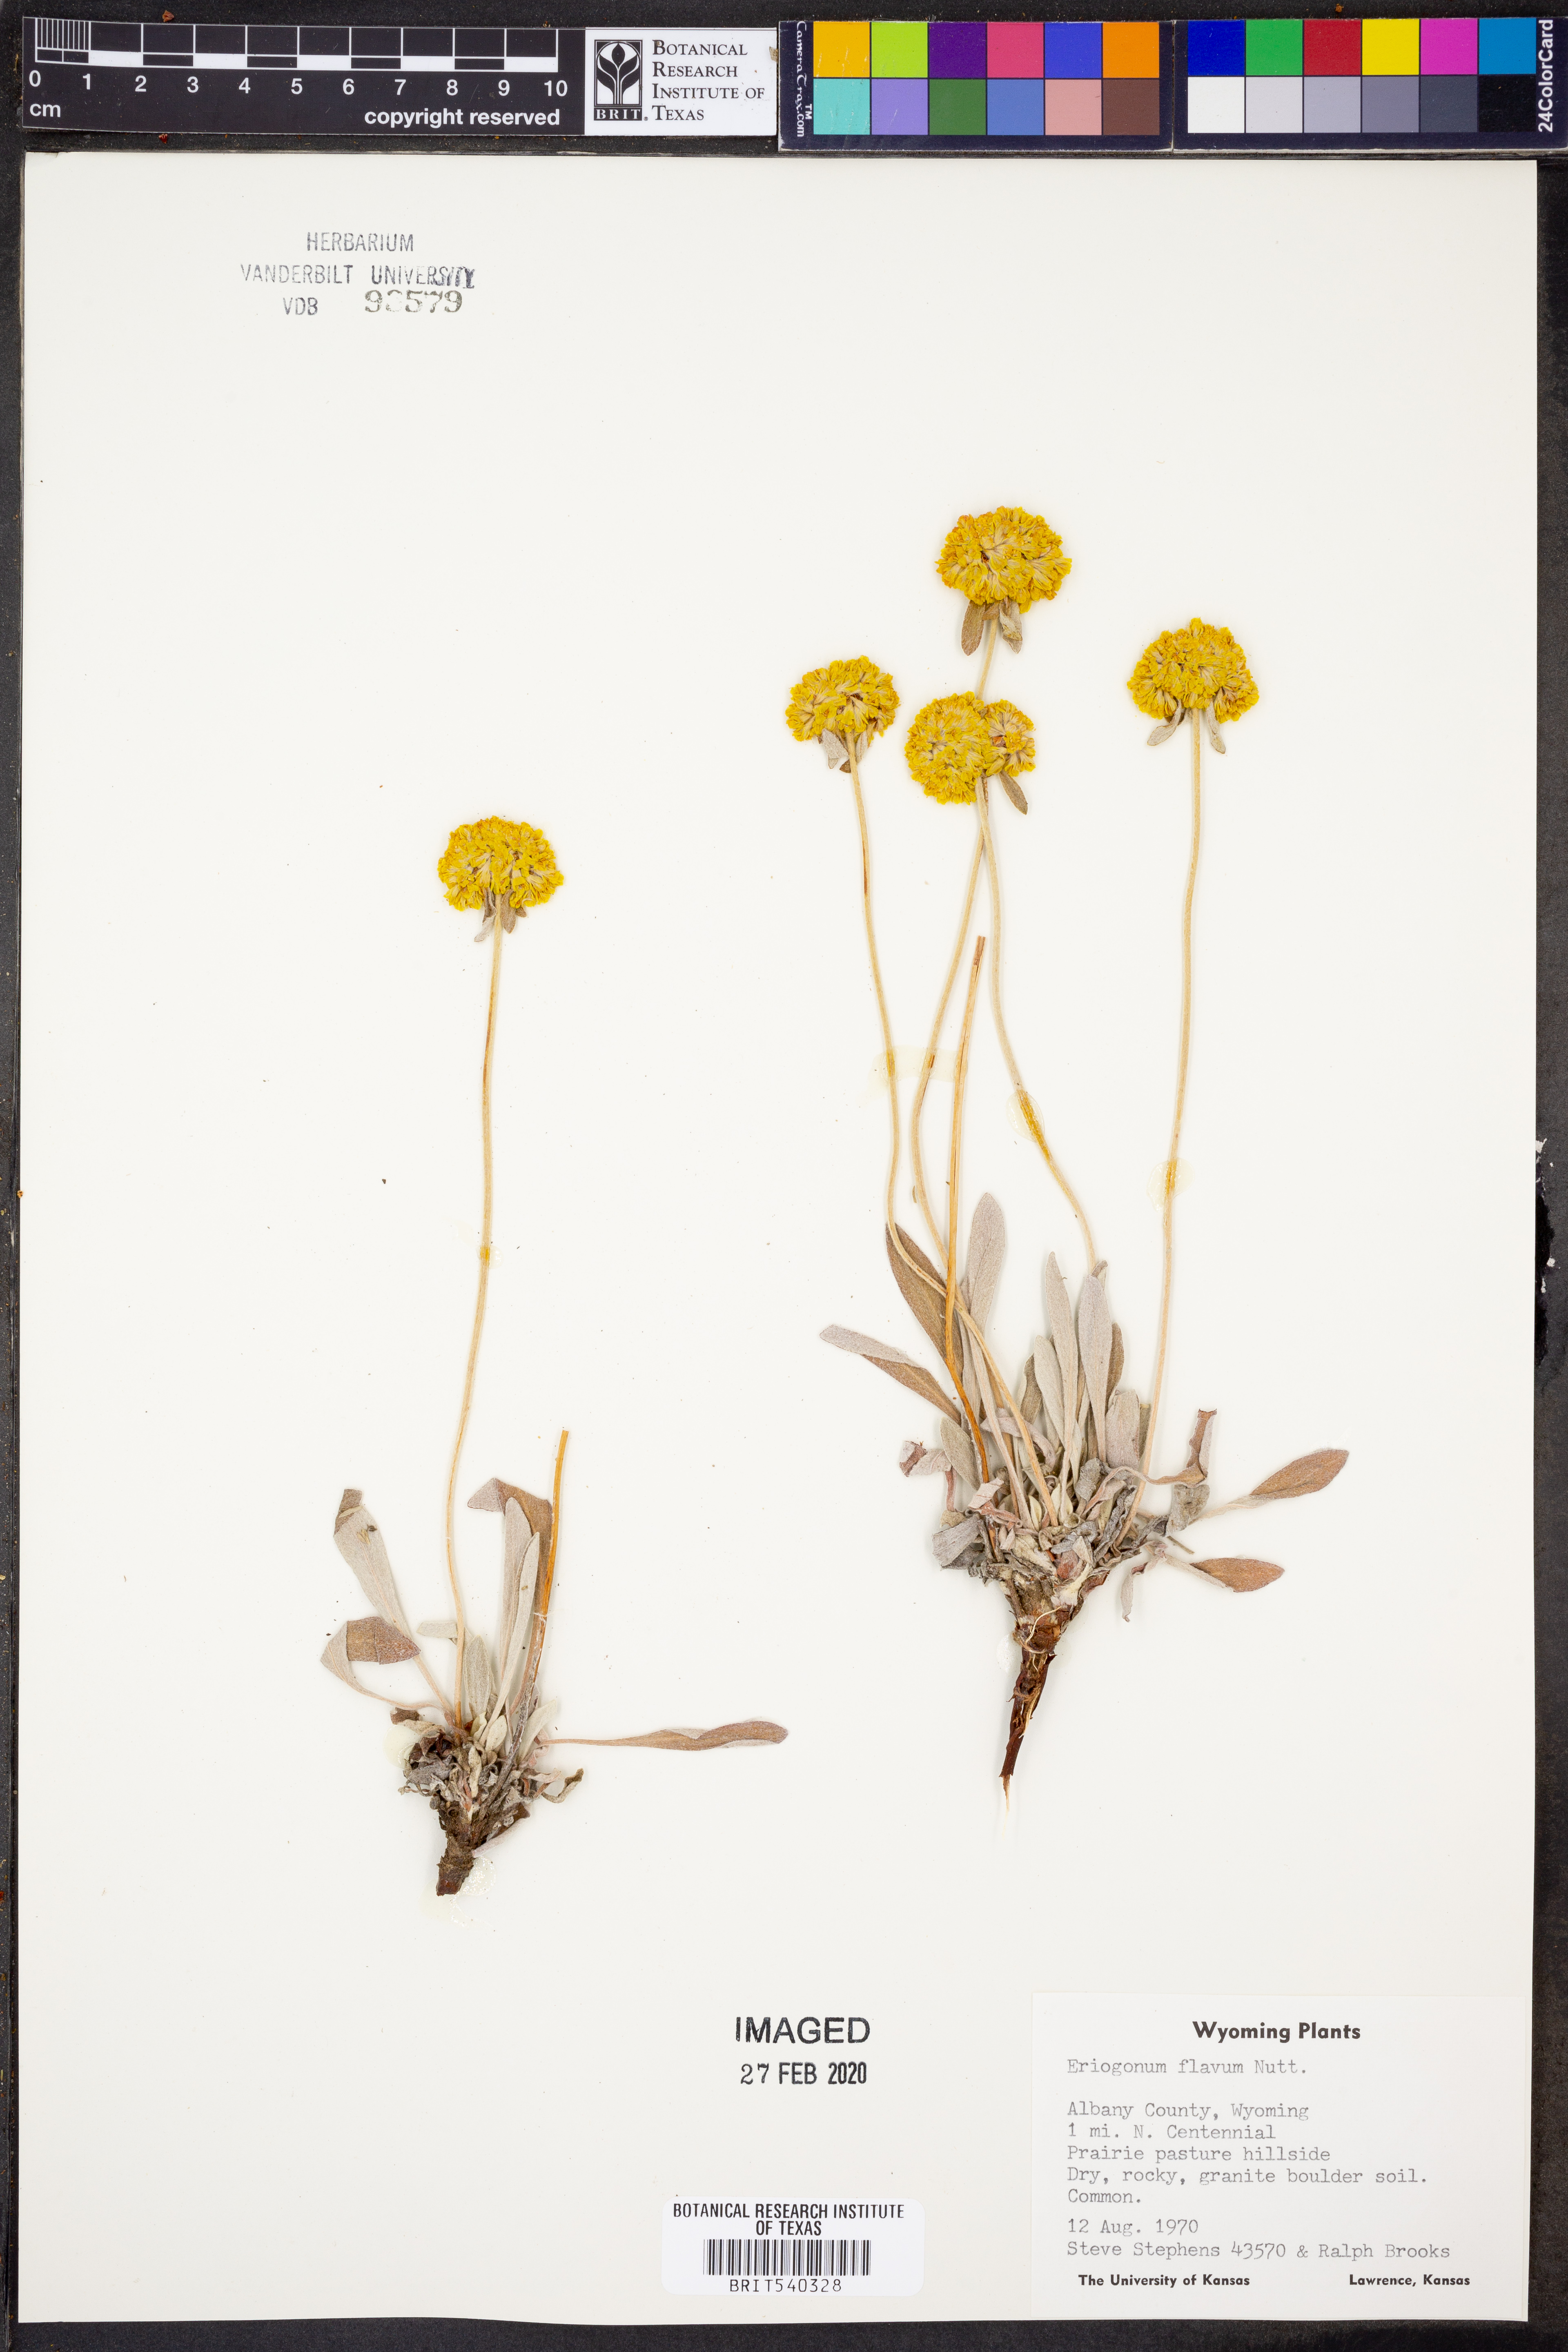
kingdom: Plantae
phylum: Tracheophyta
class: Magnoliopsida
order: Caryophyllales
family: Polygonaceae
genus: Eriogonum
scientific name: Eriogonum flavum
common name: Alpine golden wild buckwheat
